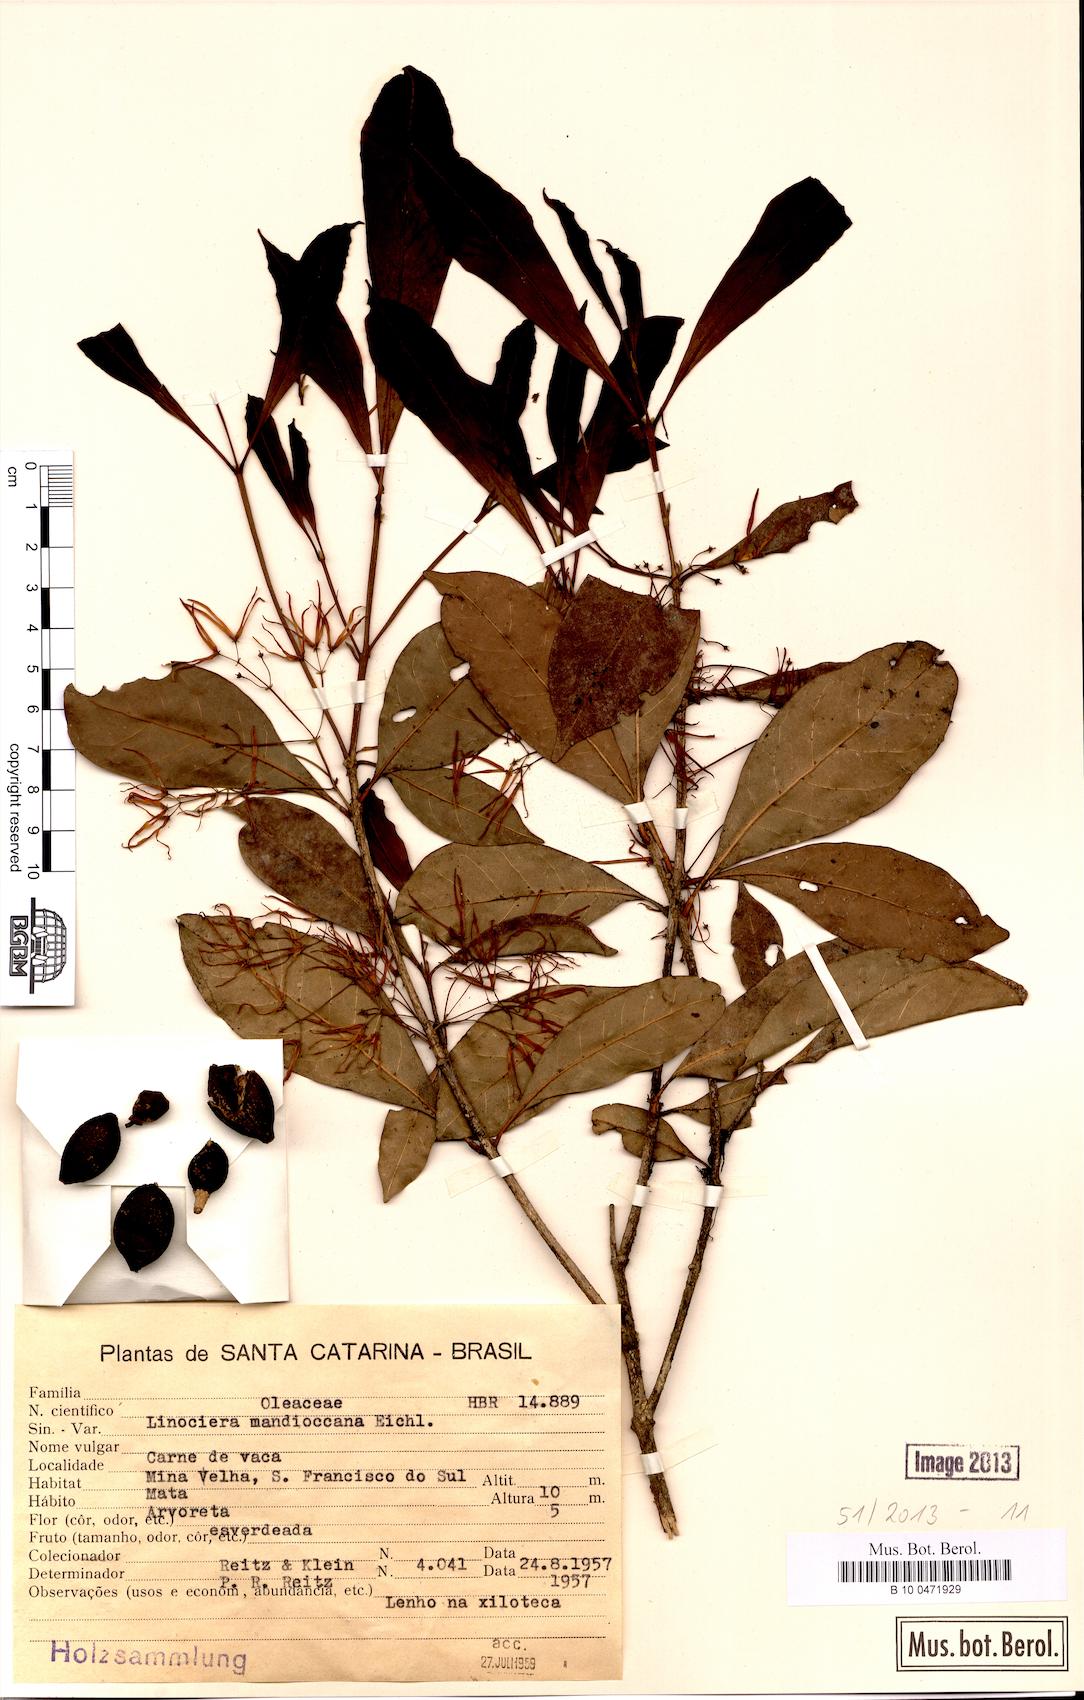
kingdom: Plantae
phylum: Tracheophyta
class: Magnoliopsida
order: Lamiales
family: Oleaceae
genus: Chionanthus
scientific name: Chionanthus filiformis
